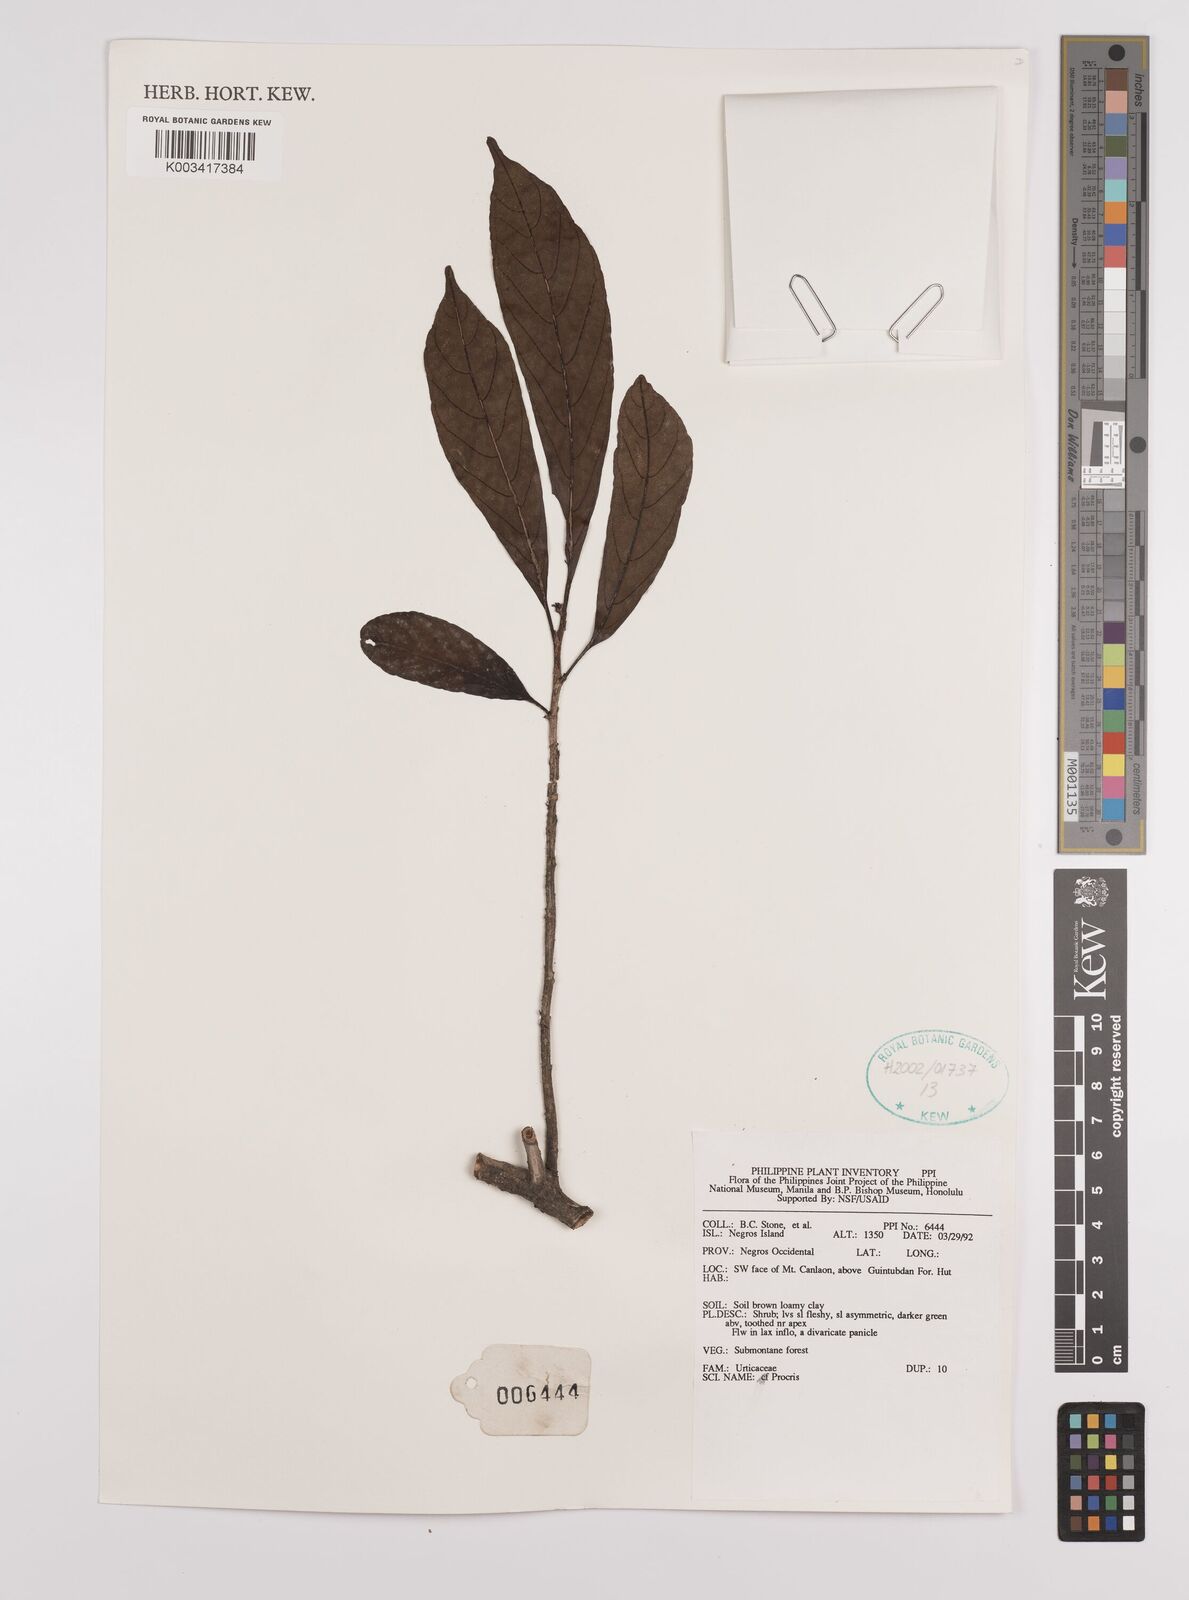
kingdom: Plantae
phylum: Tracheophyta
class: Magnoliopsida
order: Rosales
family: Urticaceae
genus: Procris
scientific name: Procris
